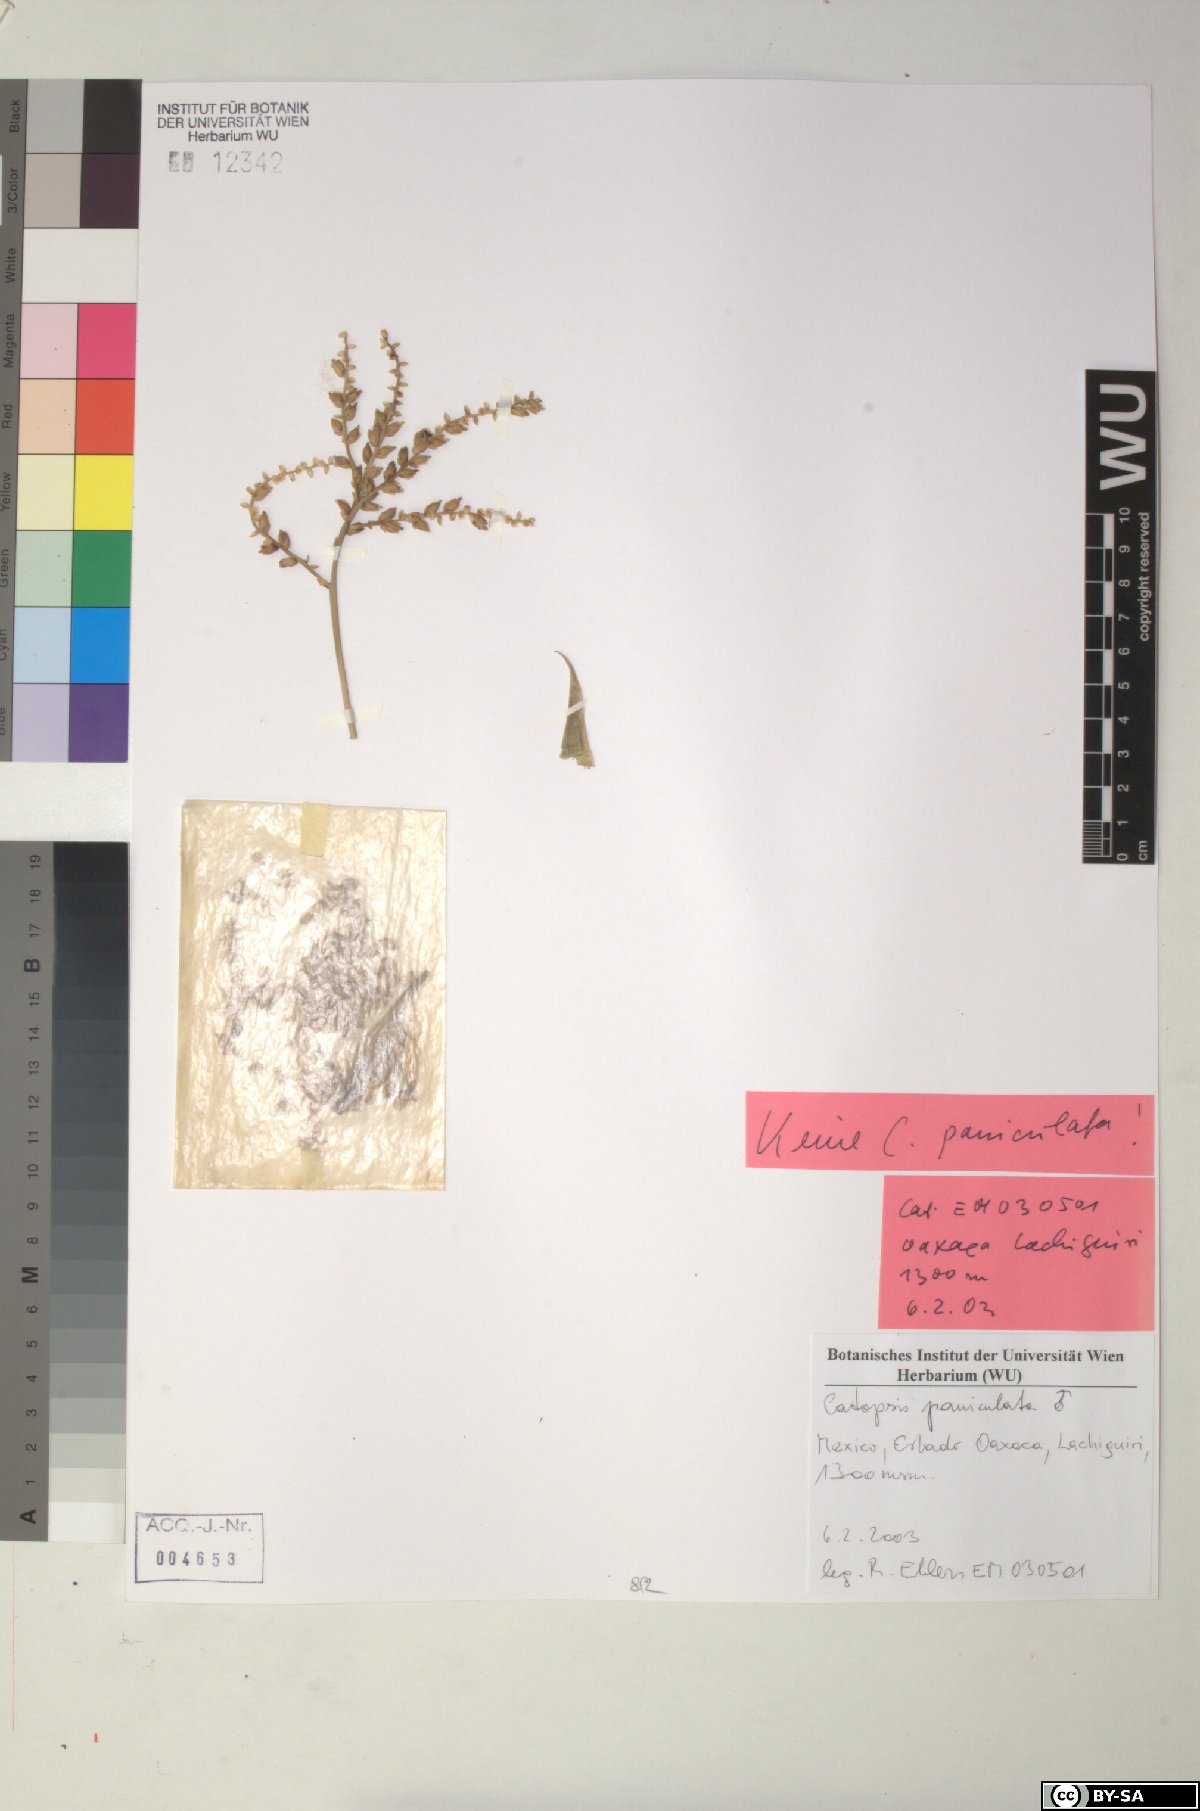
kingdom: Plantae
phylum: Tracheophyta
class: Liliopsida
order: Poales
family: Bromeliaceae
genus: Catopsis
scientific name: Catopsis paniculata
